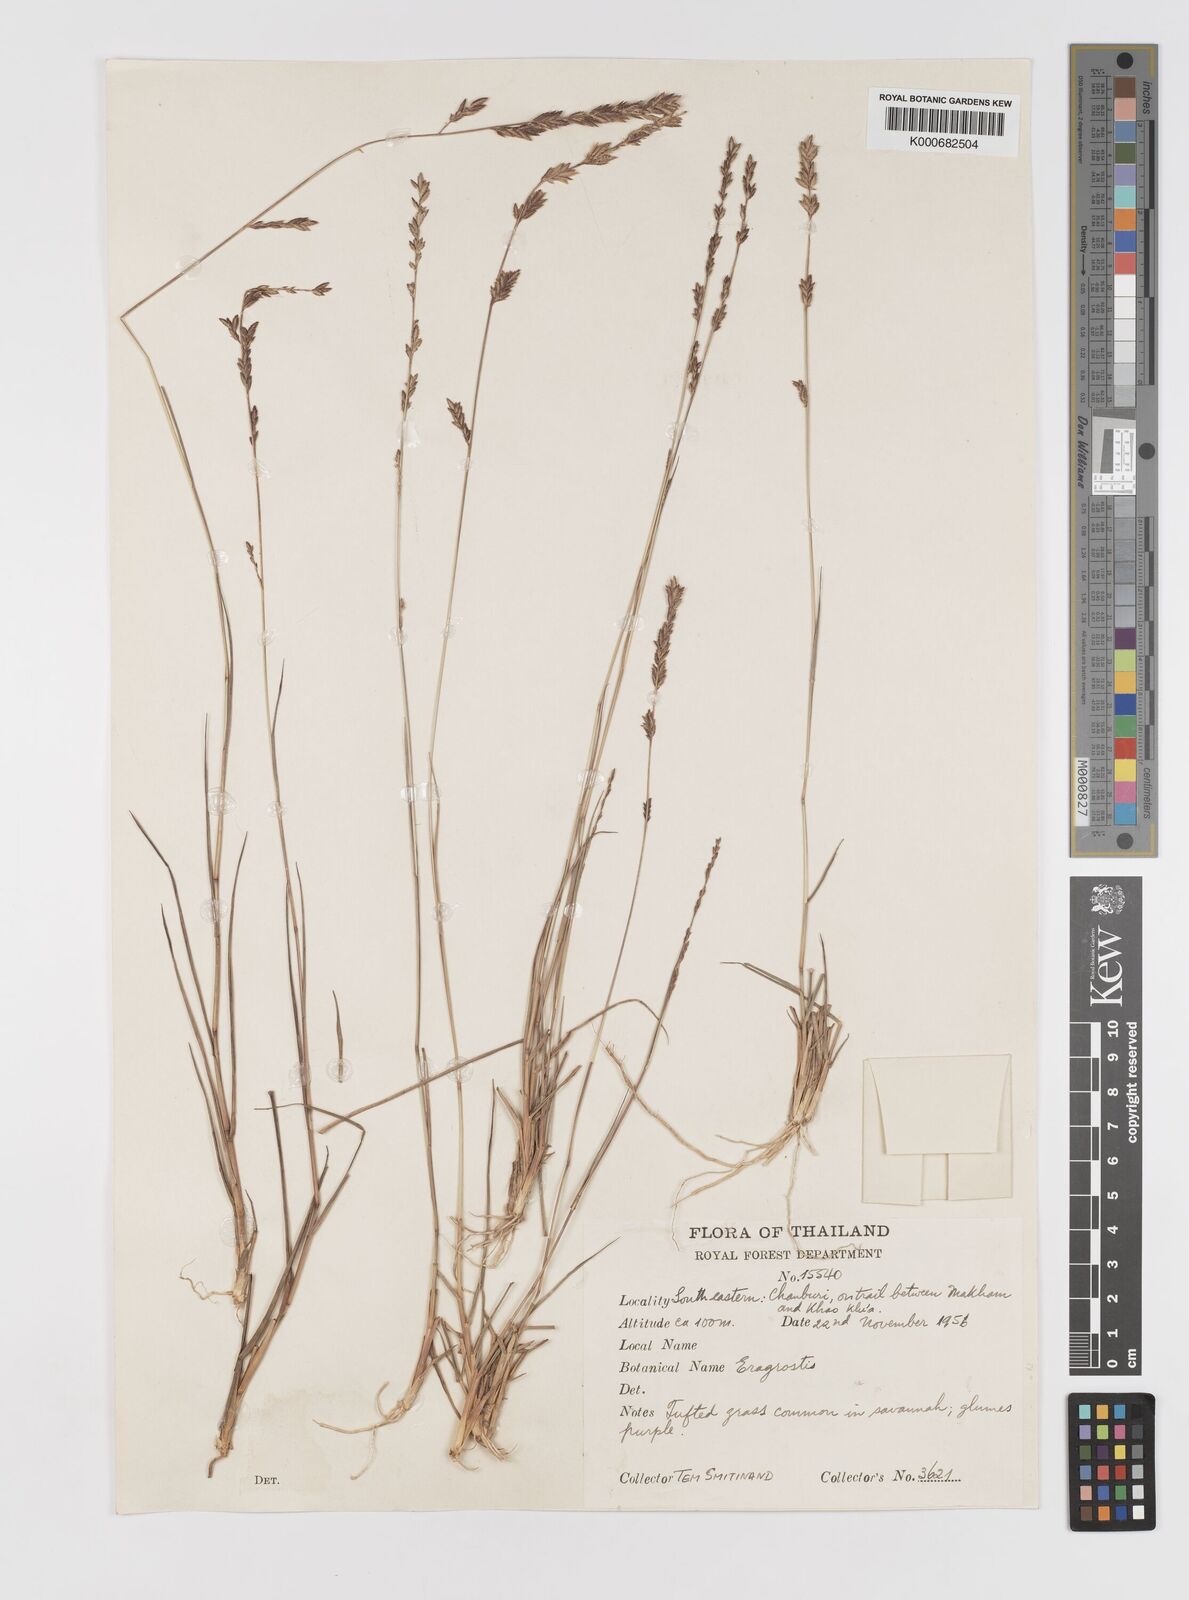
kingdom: Plantae
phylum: Tracheophyta
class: Liliopsida
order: Poales
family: Poaceae
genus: Eragrostis
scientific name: Eragrostis brownii
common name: Lovegrass
